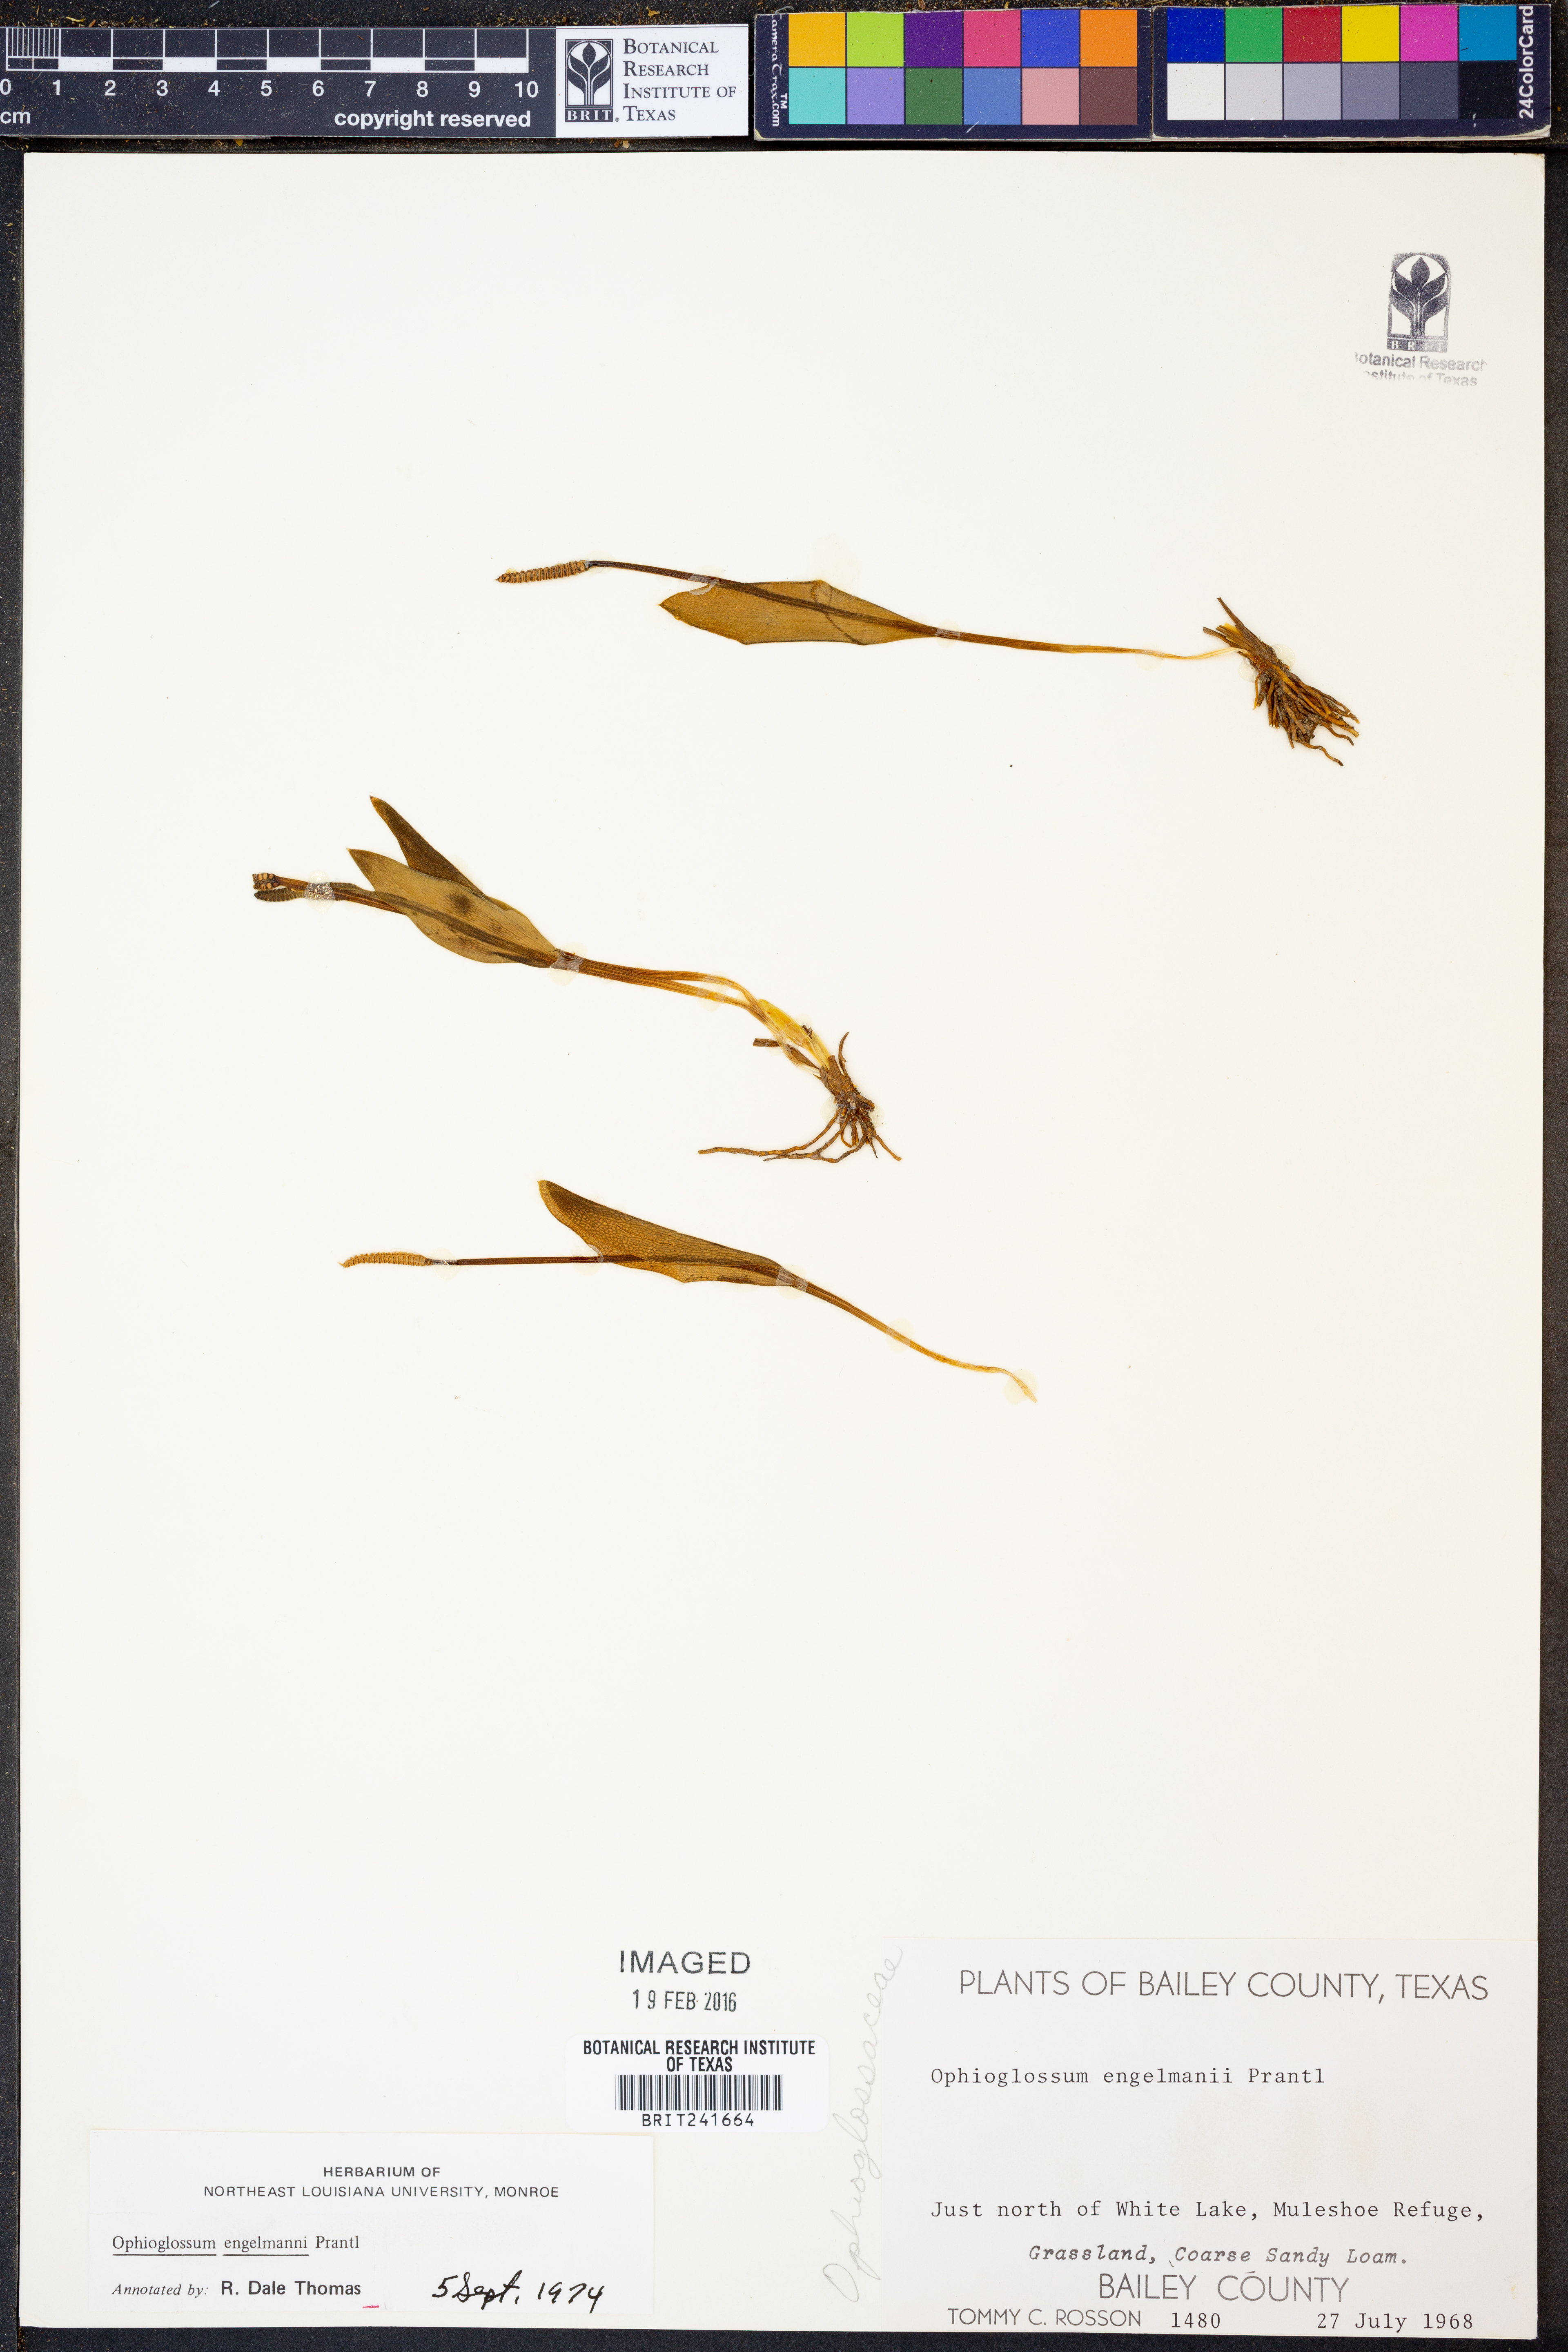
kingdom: Plantae
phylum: Tracheophyta
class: Polypodiopsida
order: Ophioglossales
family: Ophioglossaceae
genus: Ophioglossum
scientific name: Ophioglossum engelmannii
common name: Limestone adder's-tongue
